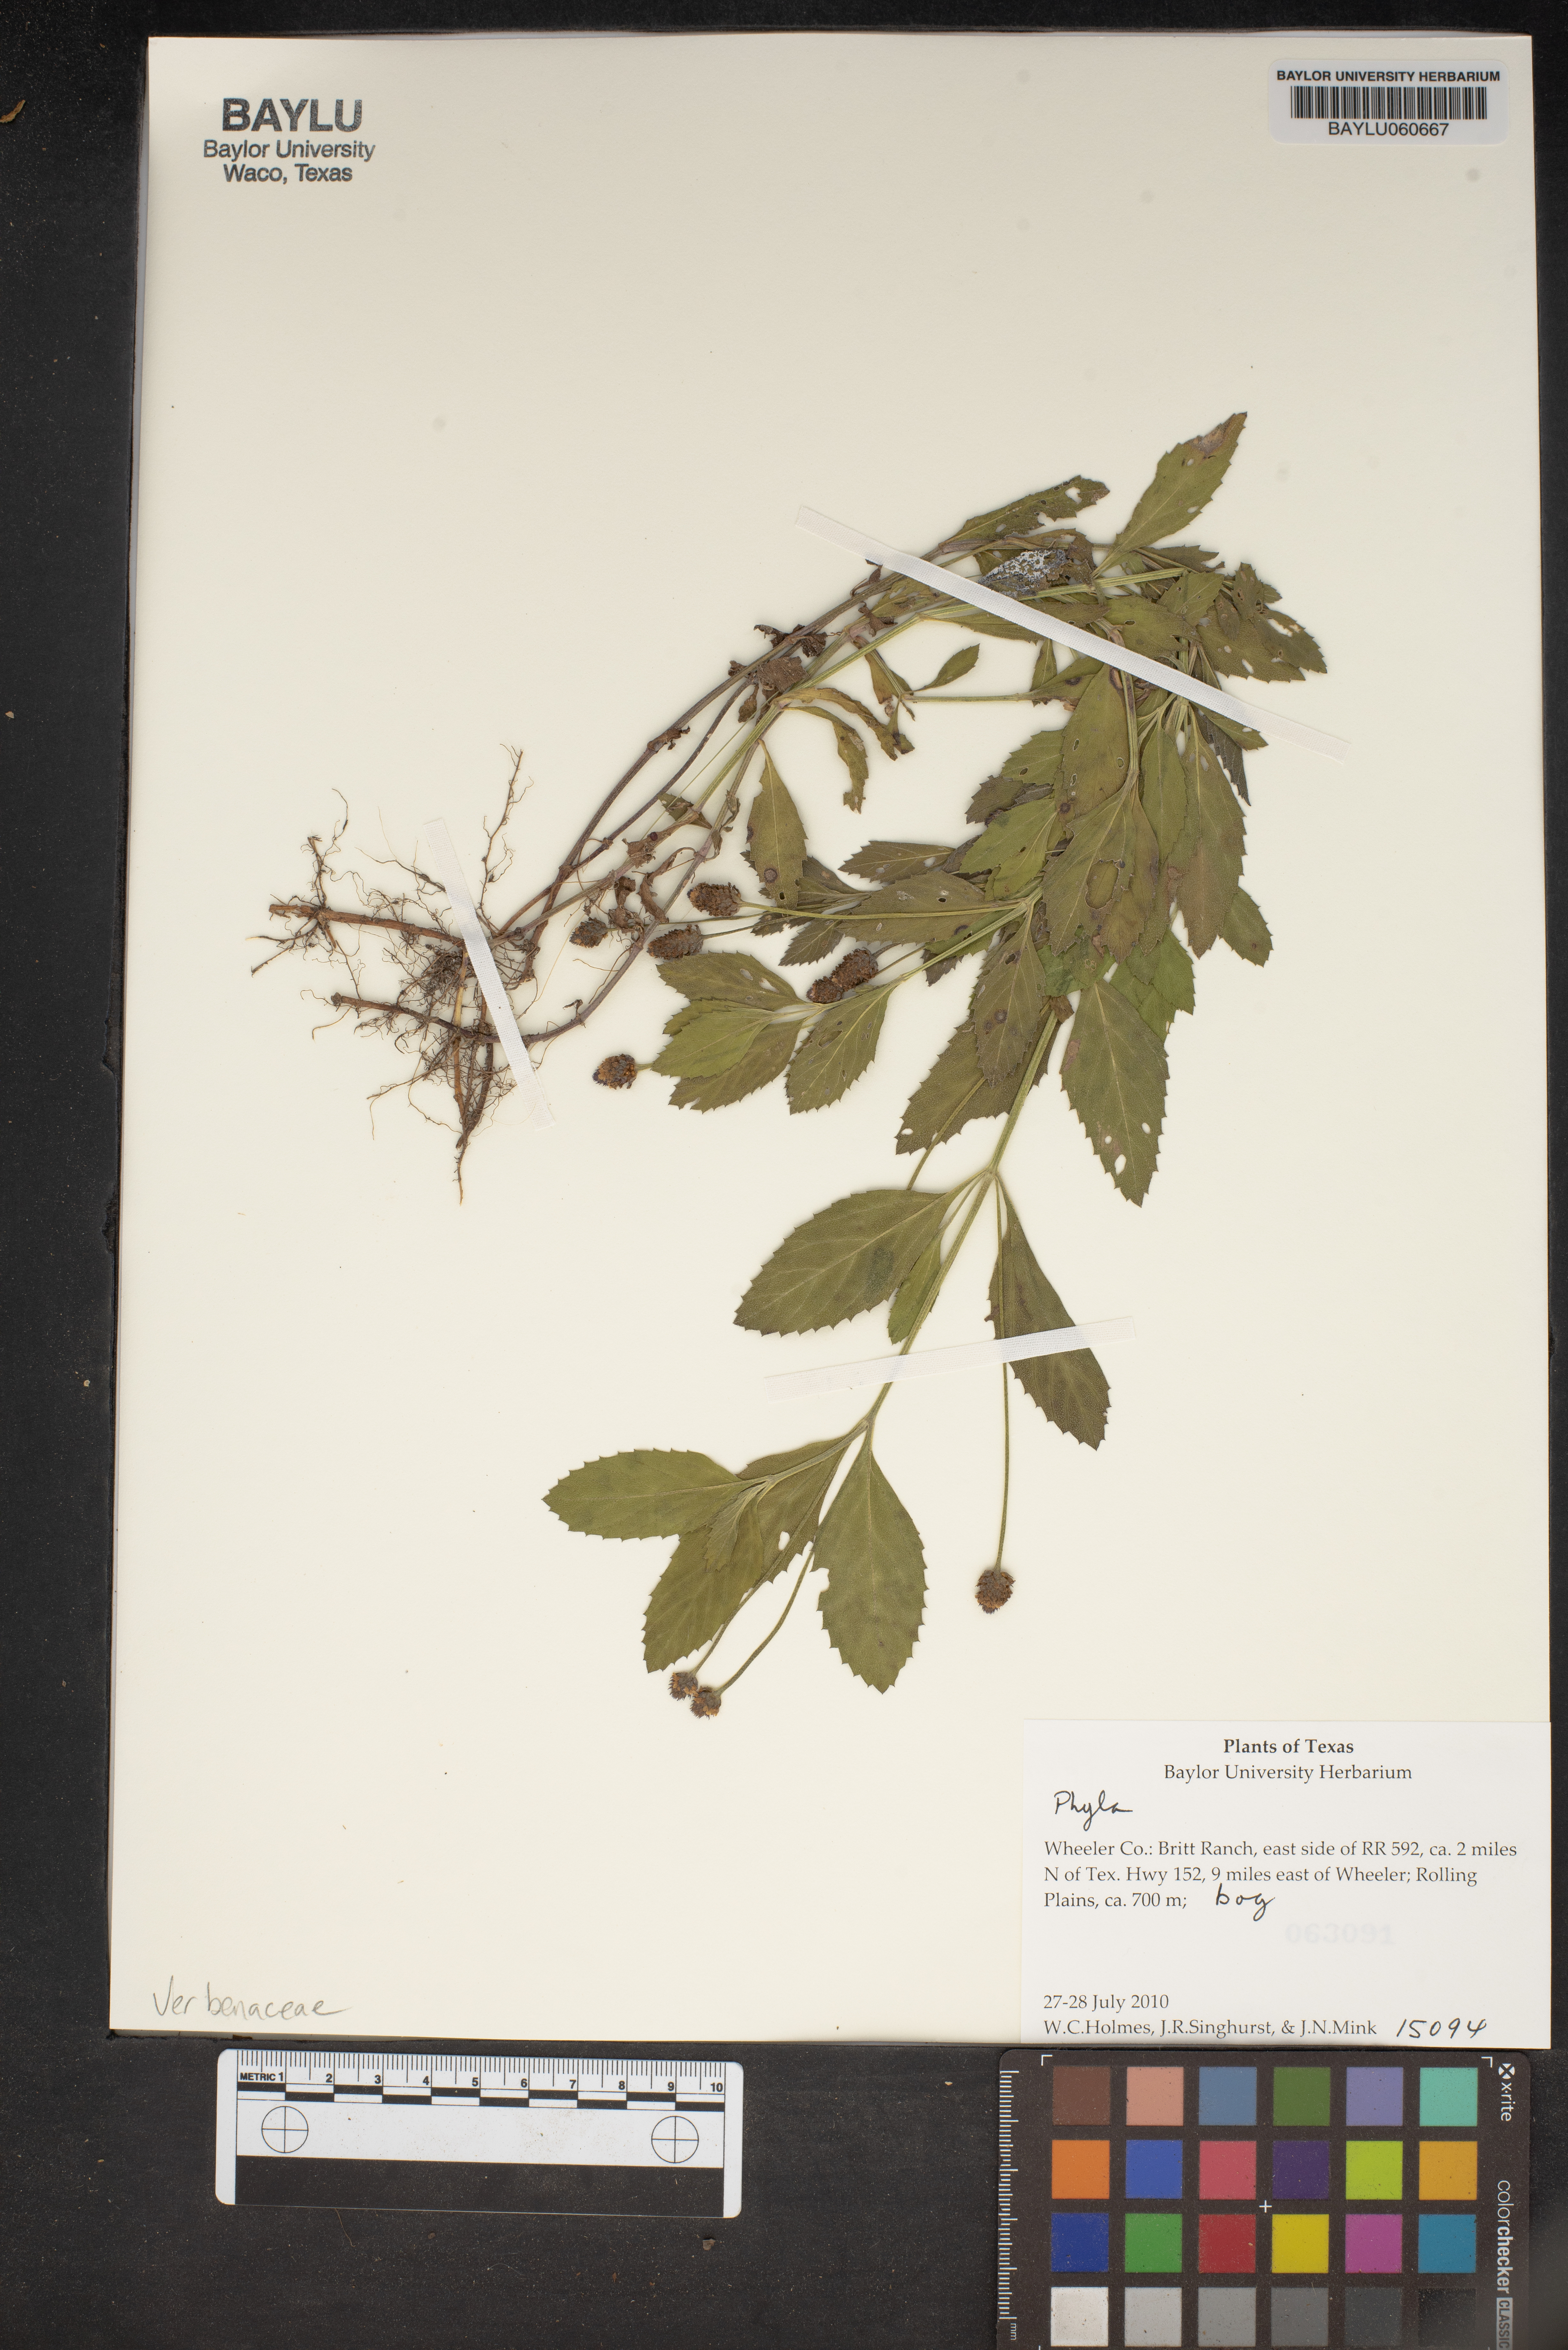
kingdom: Plantae
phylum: Tracheophyta
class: Magnoliopsida
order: Lamiales
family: Verbenaceae
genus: Phyla
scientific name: Phyla
